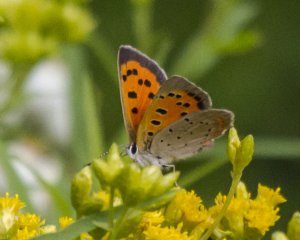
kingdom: Animalia
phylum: Arthropoda
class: Insecta
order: Lepidoptera
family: Lycaenidae
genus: Lycaena
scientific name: Lycaena phlaeas
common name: American Copper
